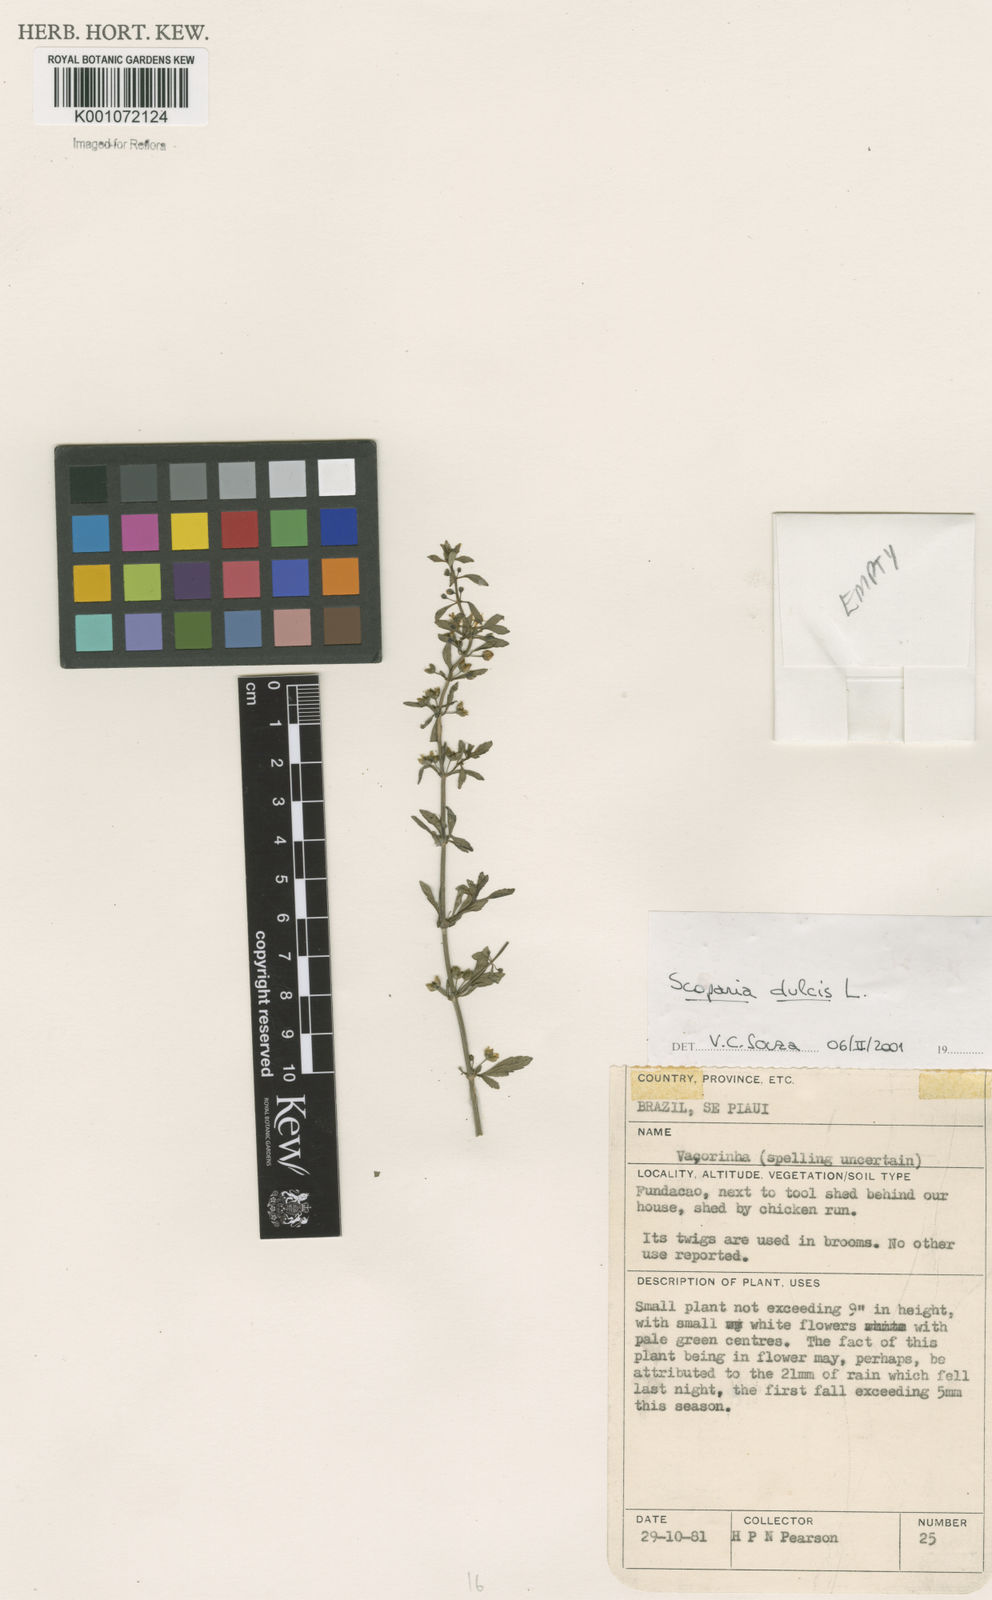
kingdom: Plantae
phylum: Tracheophyta
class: Magnoliopsida
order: Lamiales
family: Plantaginaceae
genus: Scoparia
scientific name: Scoparia dulcis
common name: Scoparia-weed
